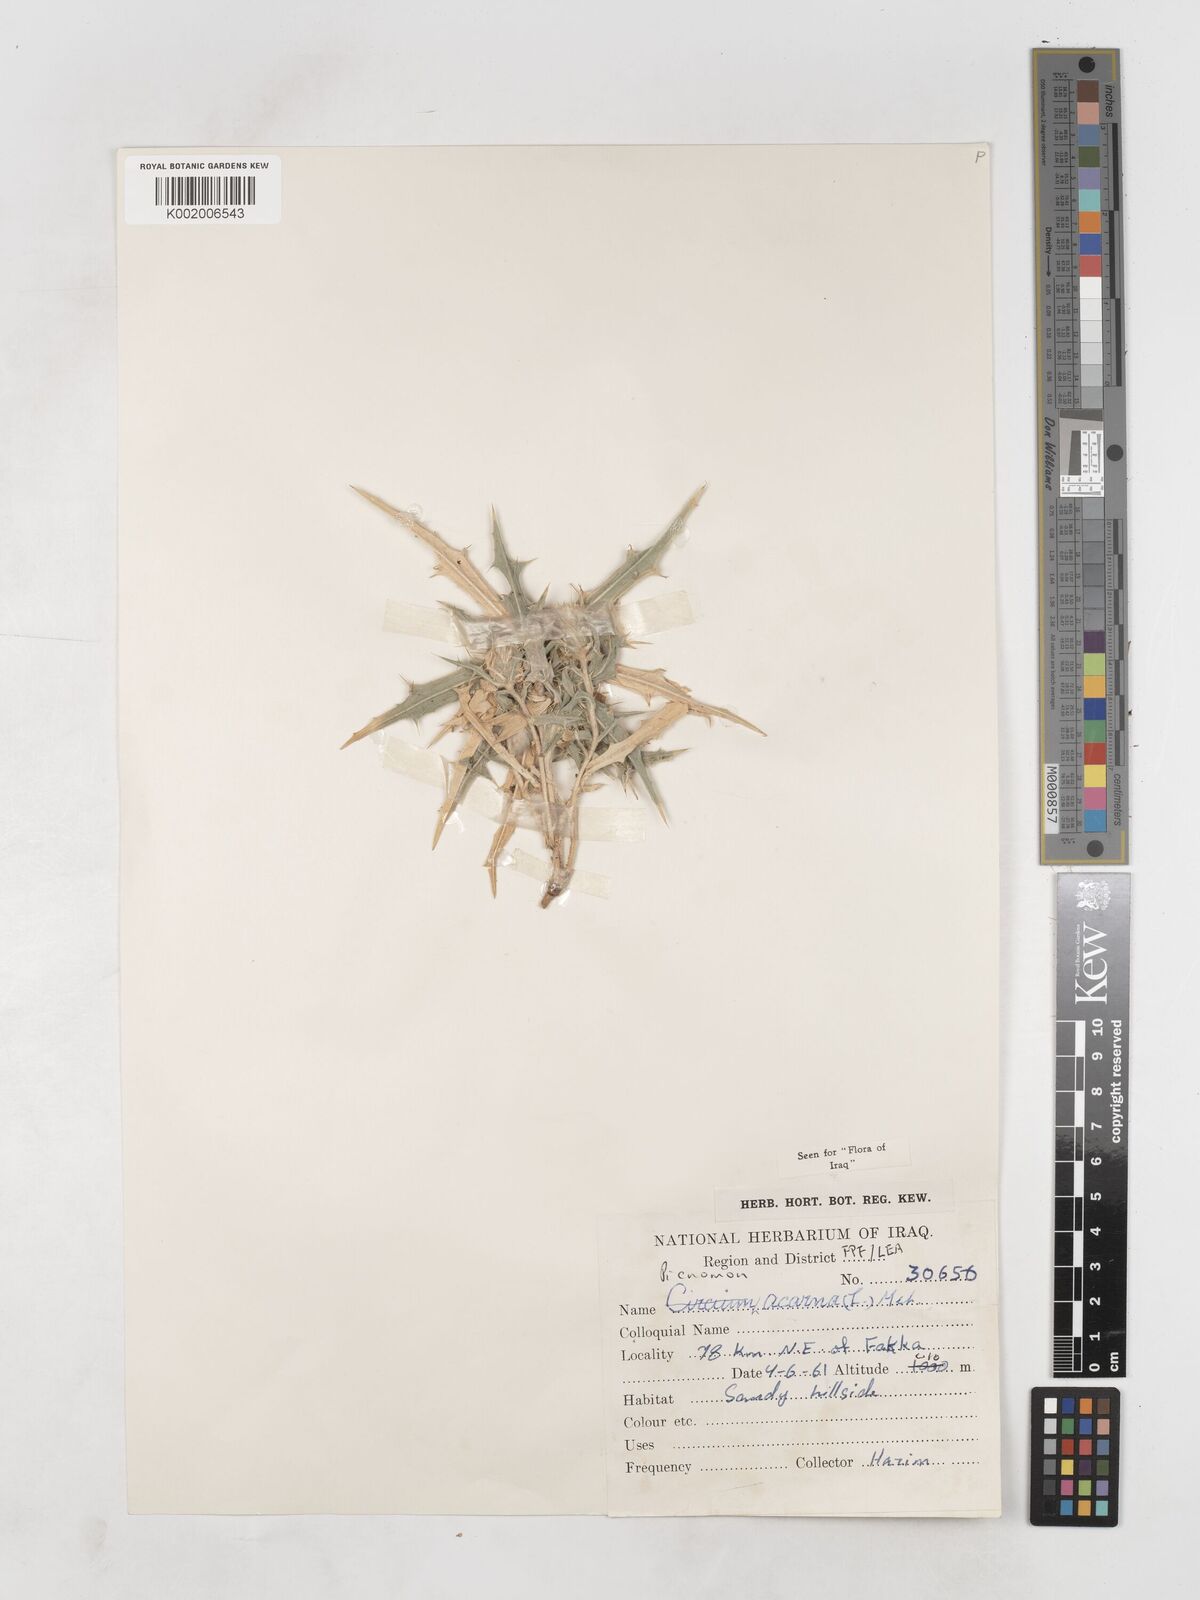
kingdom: Plantae
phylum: Tracheophyta
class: Magnoliopsida
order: Asterales
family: Asteraceae
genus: Picnomon
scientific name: Picnomon acarna
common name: Soldier thistle
